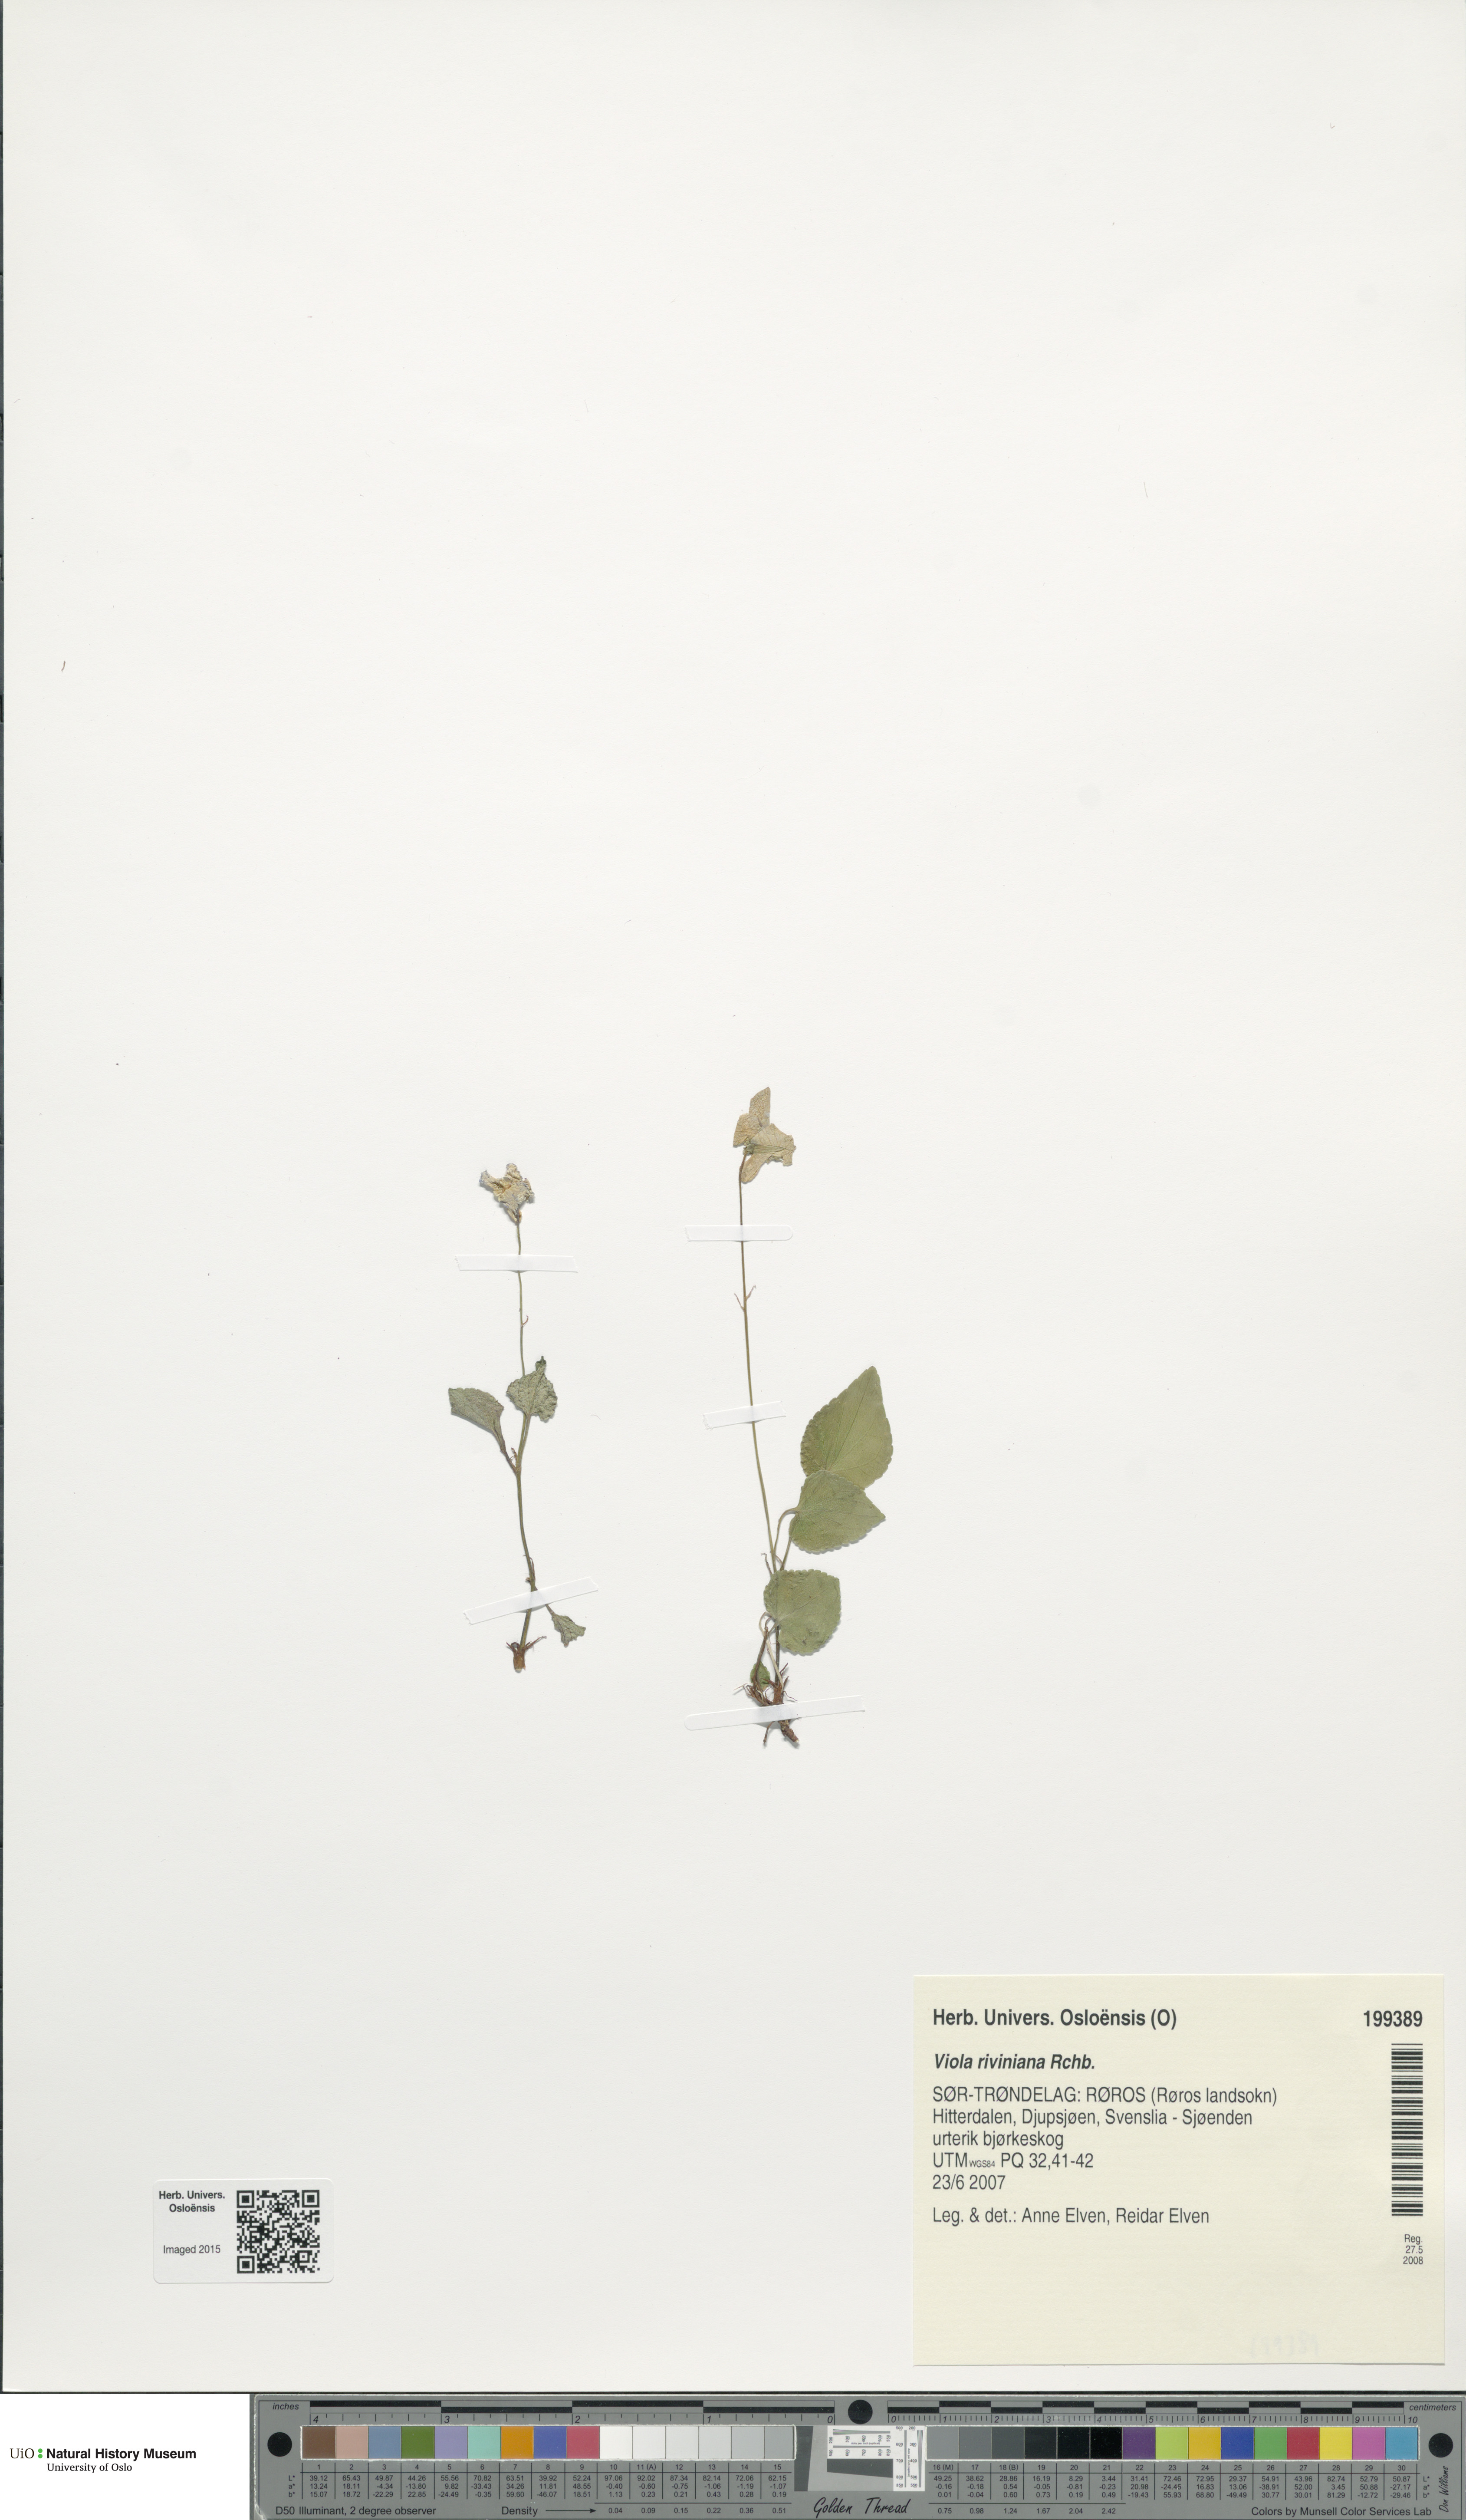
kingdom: Plantae
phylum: Tracheophyta
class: Magnoliopsida
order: Malpighiales
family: Violaceae
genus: Viola
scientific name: Viola riviniana
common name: Common dog-violet
